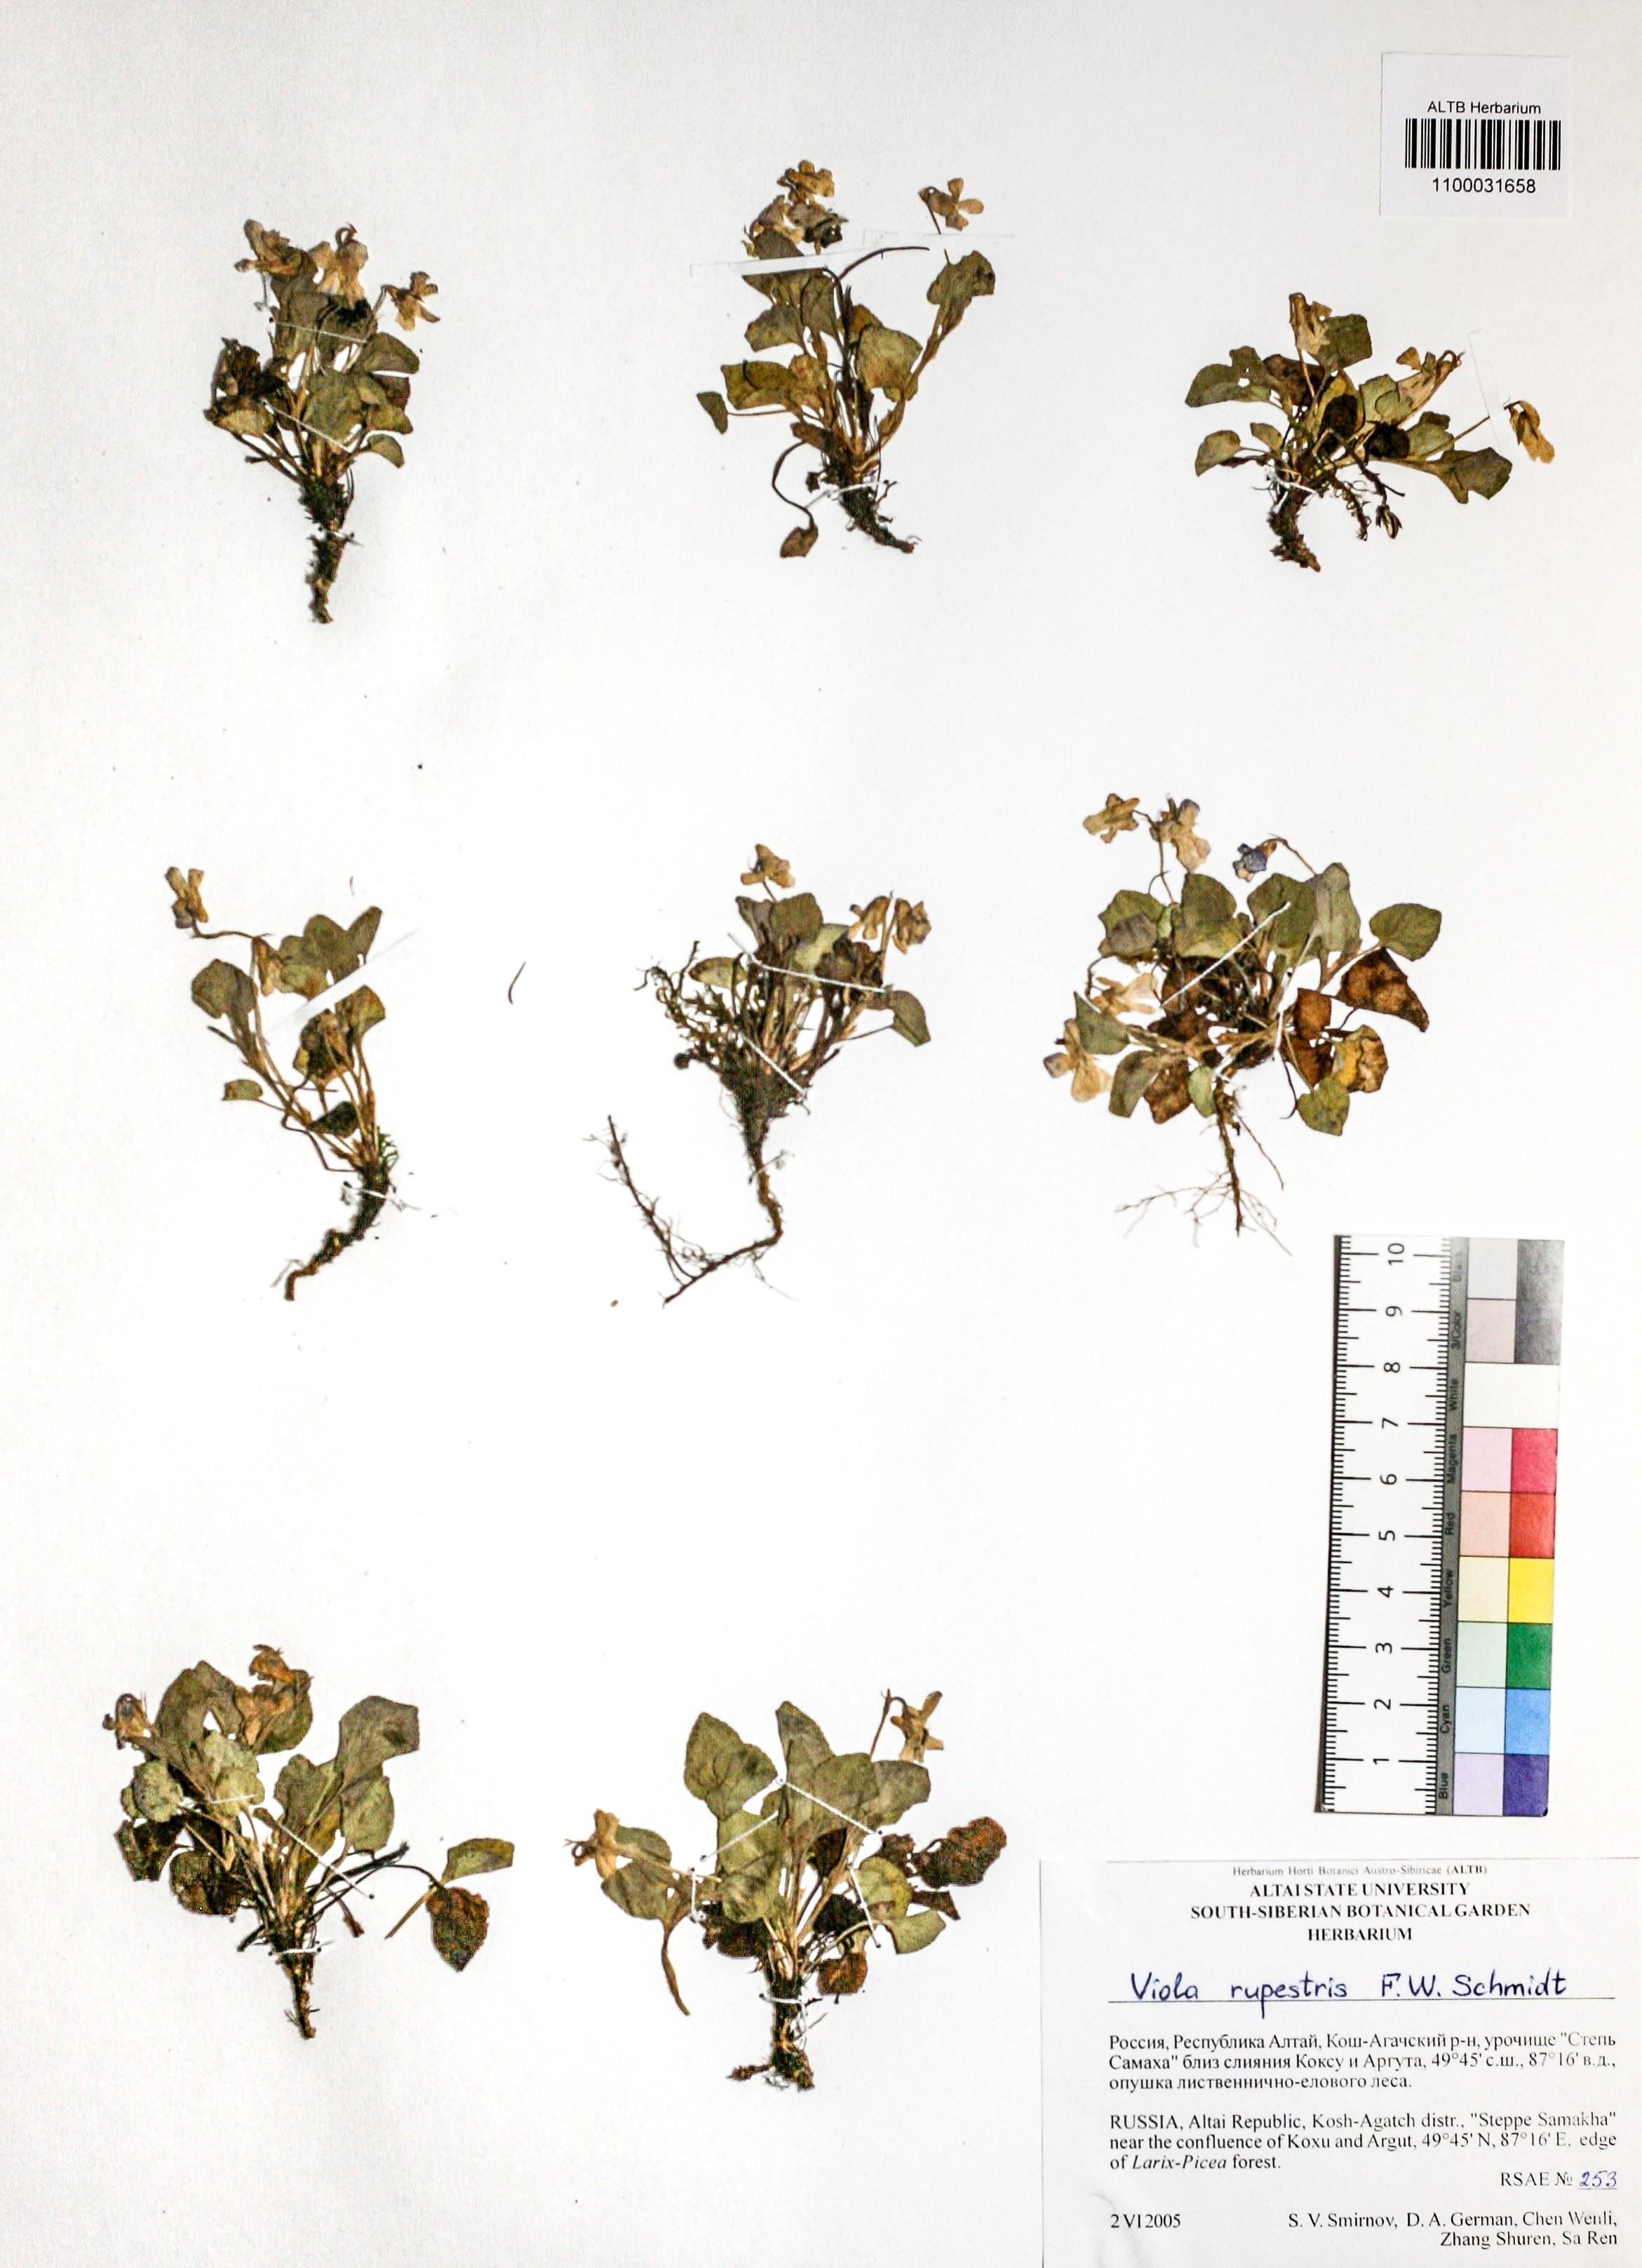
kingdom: Plantae
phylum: Tracheophyta
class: Magnoliopsida
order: Malpighiales
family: Violaceae
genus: Viola
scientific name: Viola rupestris
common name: Teesdale violet
